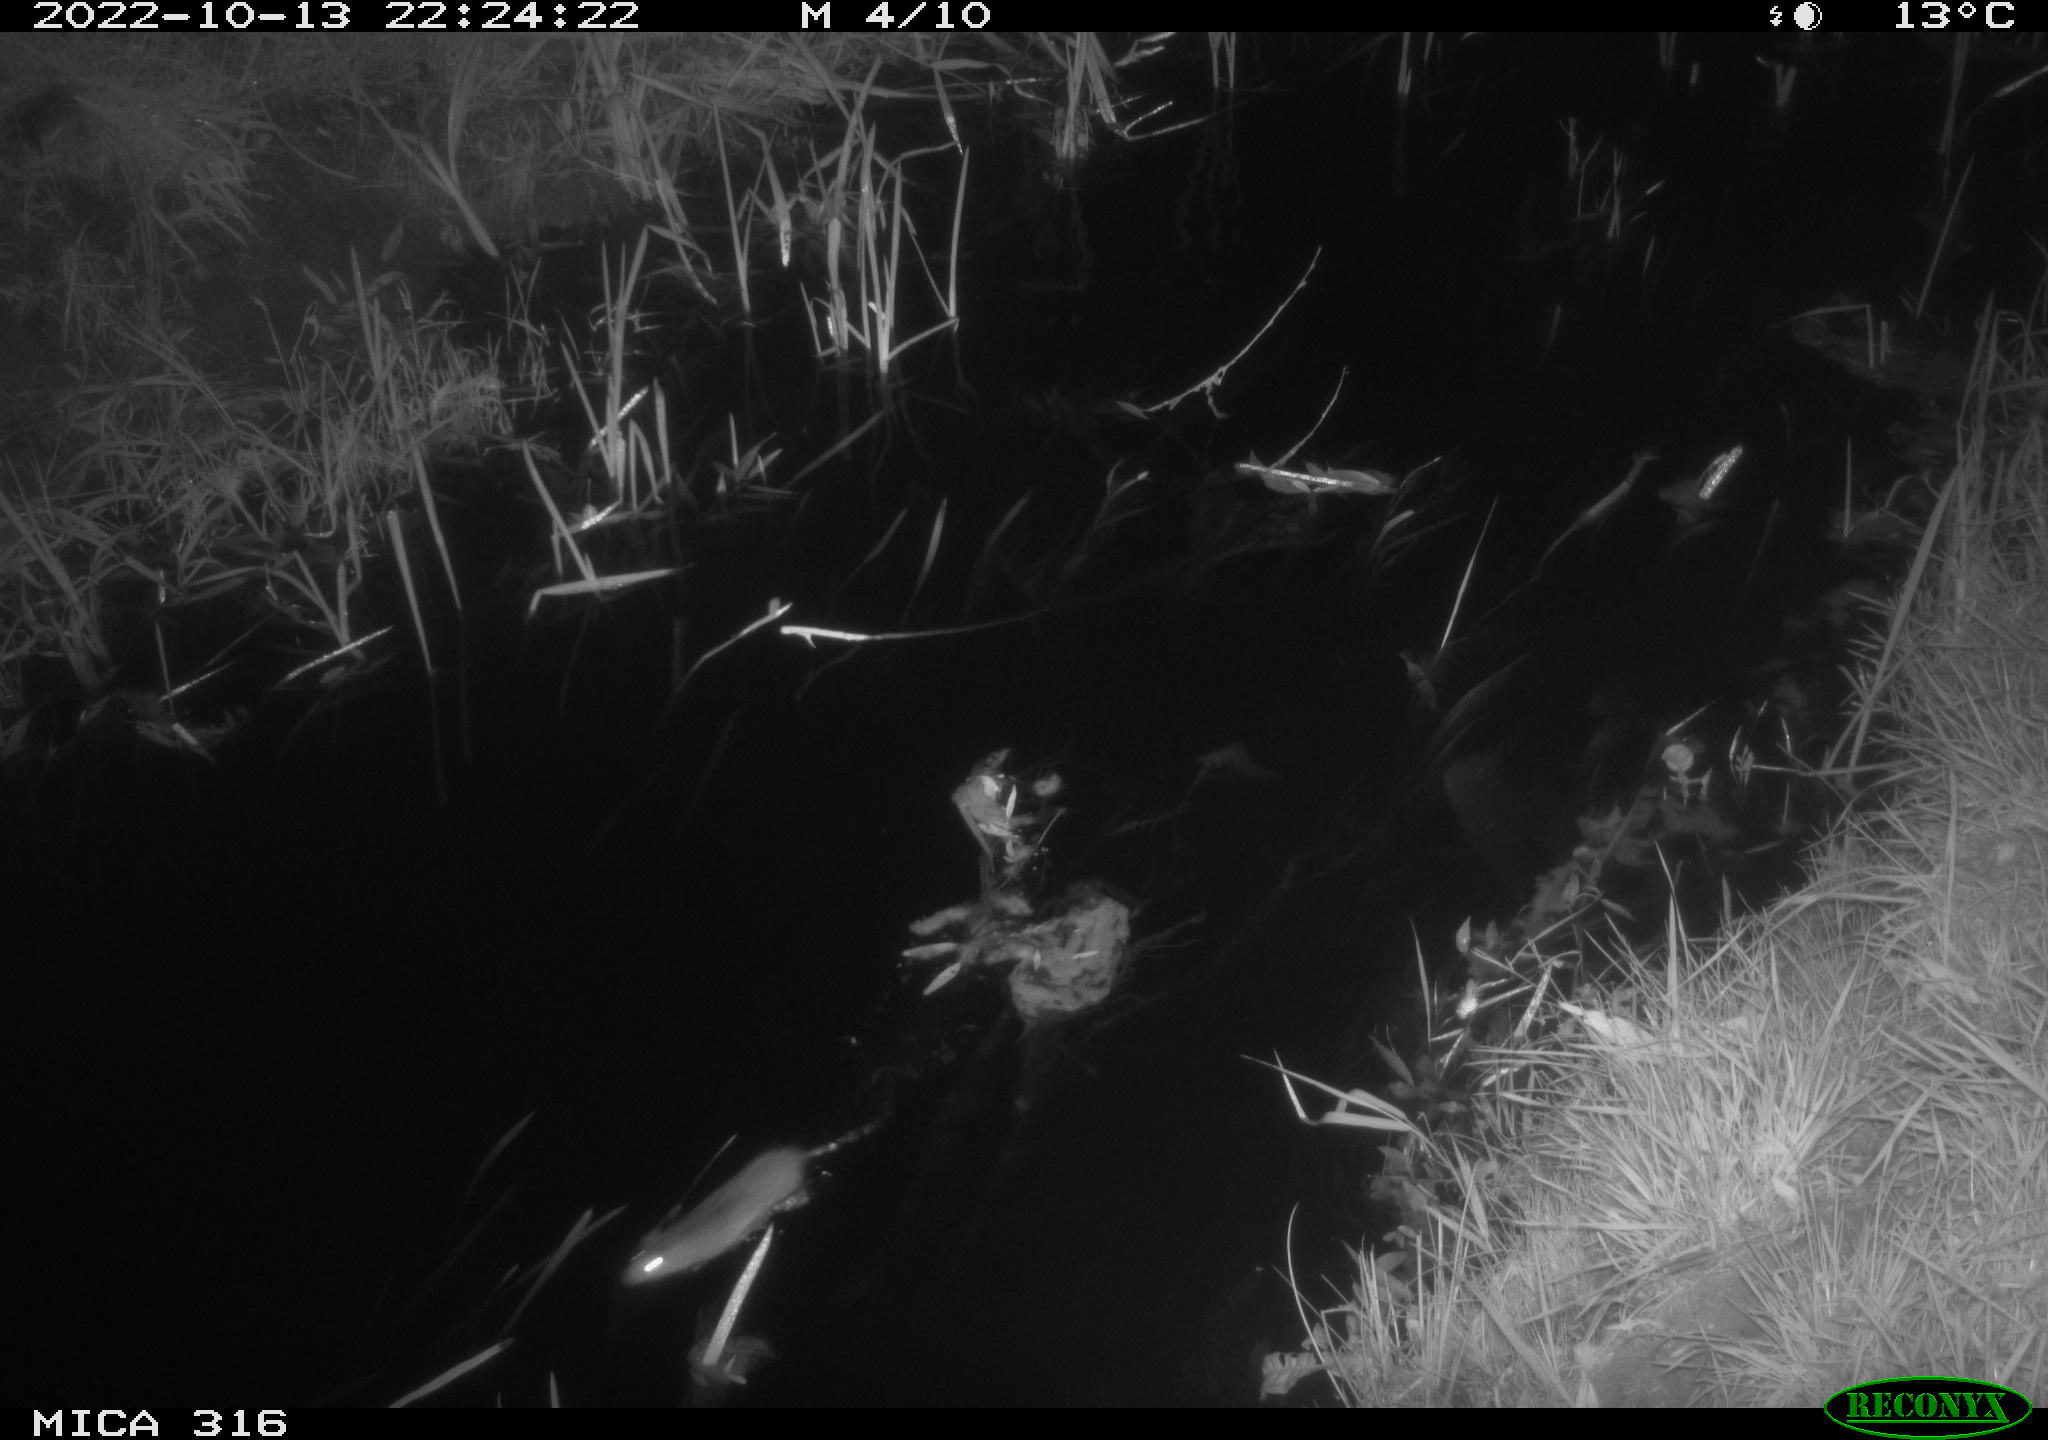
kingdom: Animalia
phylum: Chordata
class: Mammalia
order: Rodentia
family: Muridae
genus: Rattus
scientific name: Rattus norvegicus
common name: Brown rat
